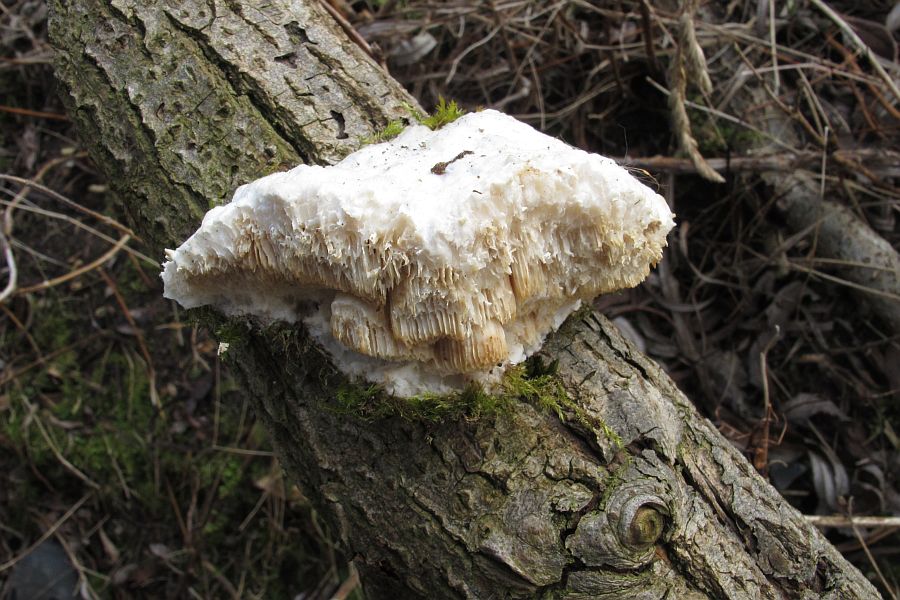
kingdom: Fungi
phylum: Basidiomycota
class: Agaricomycetes
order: Polyporales
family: Polyporaceae
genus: Trametes
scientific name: Trametes suaveolens
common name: vellugtende læderporesvamp
